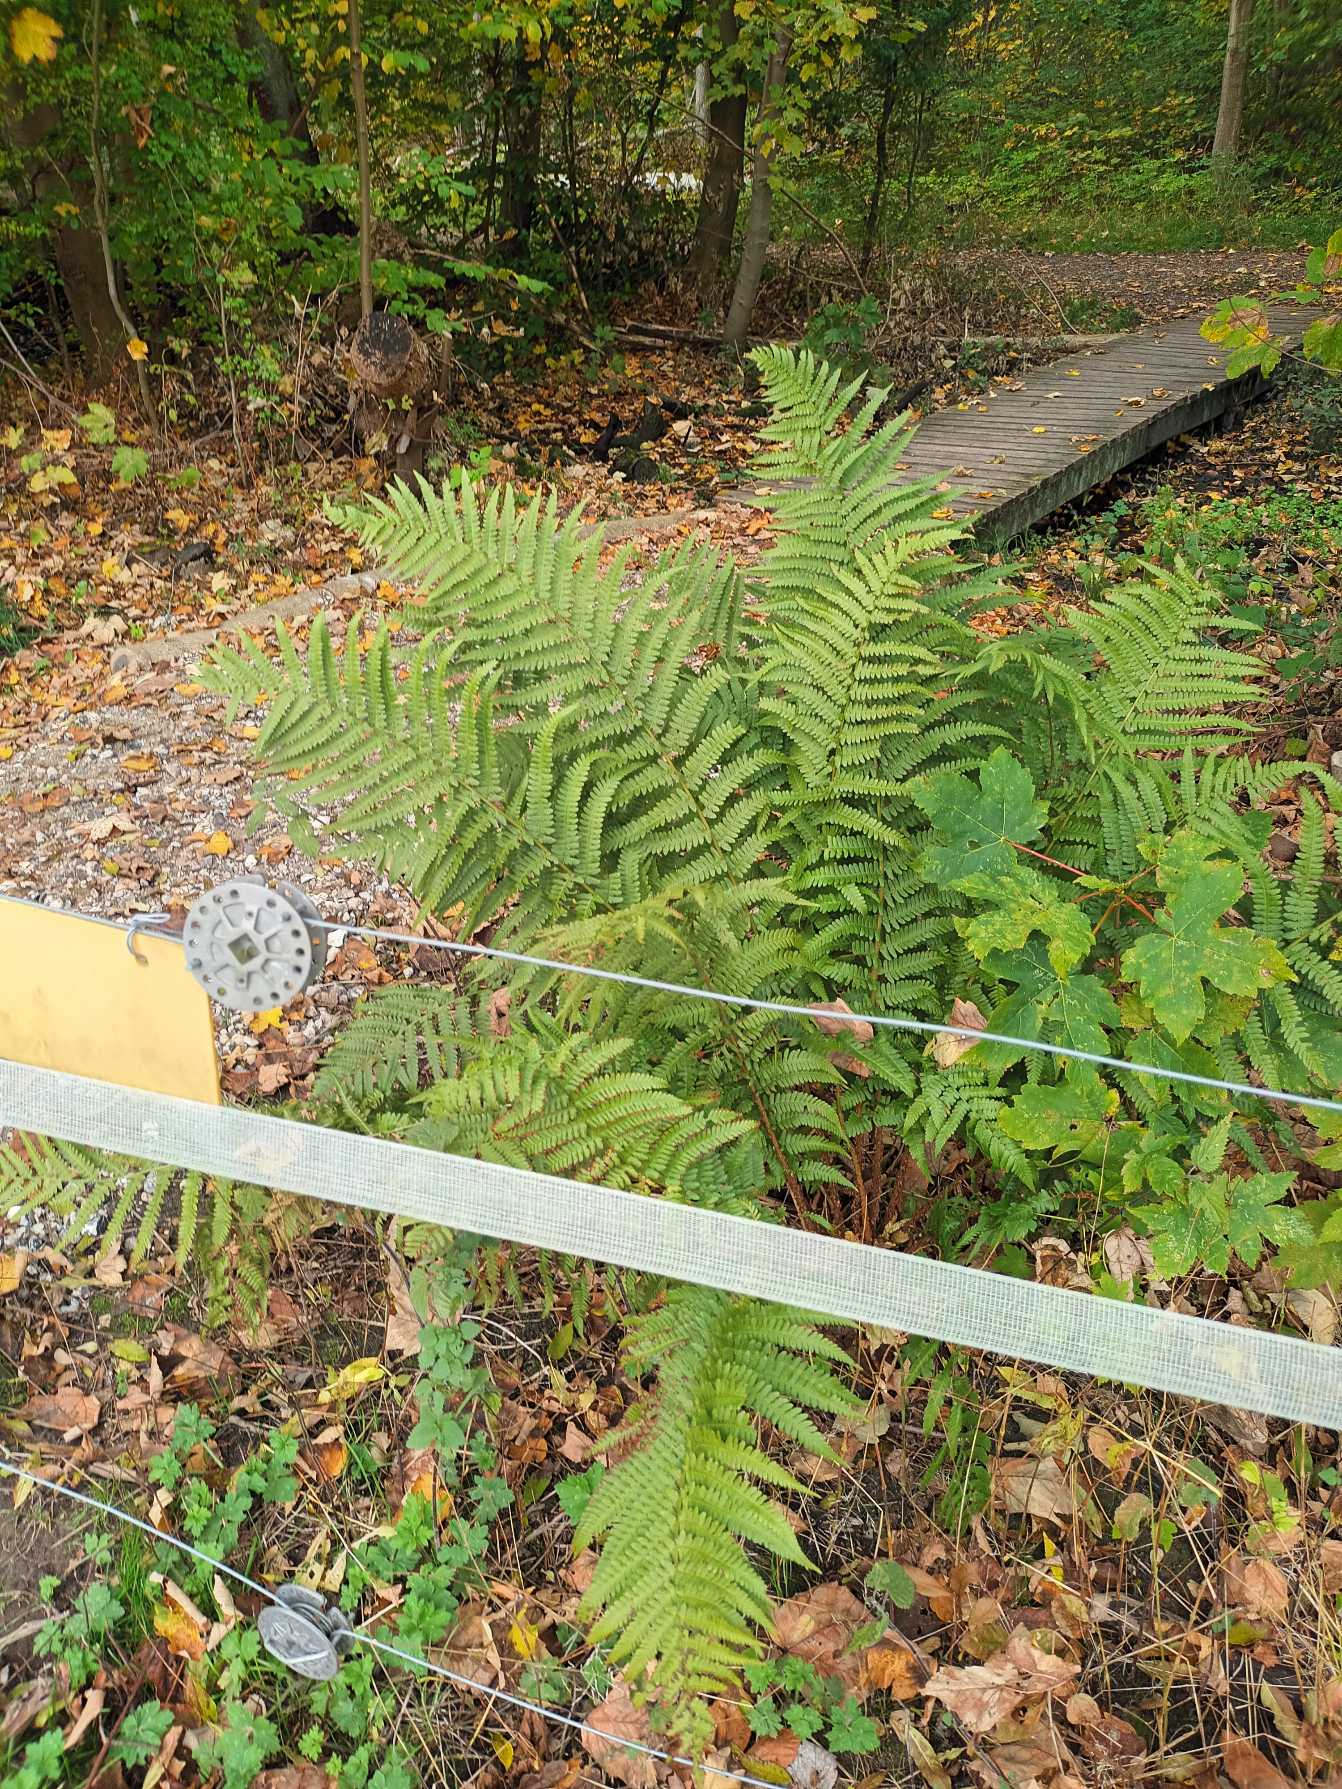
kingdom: Plantae
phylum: Tracheophyta
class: Polypodiopsida
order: Polypodiales
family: Dryopteridaceae
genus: Dryopteris
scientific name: Dryopteris filix-mas
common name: Almindelig mangeløv
